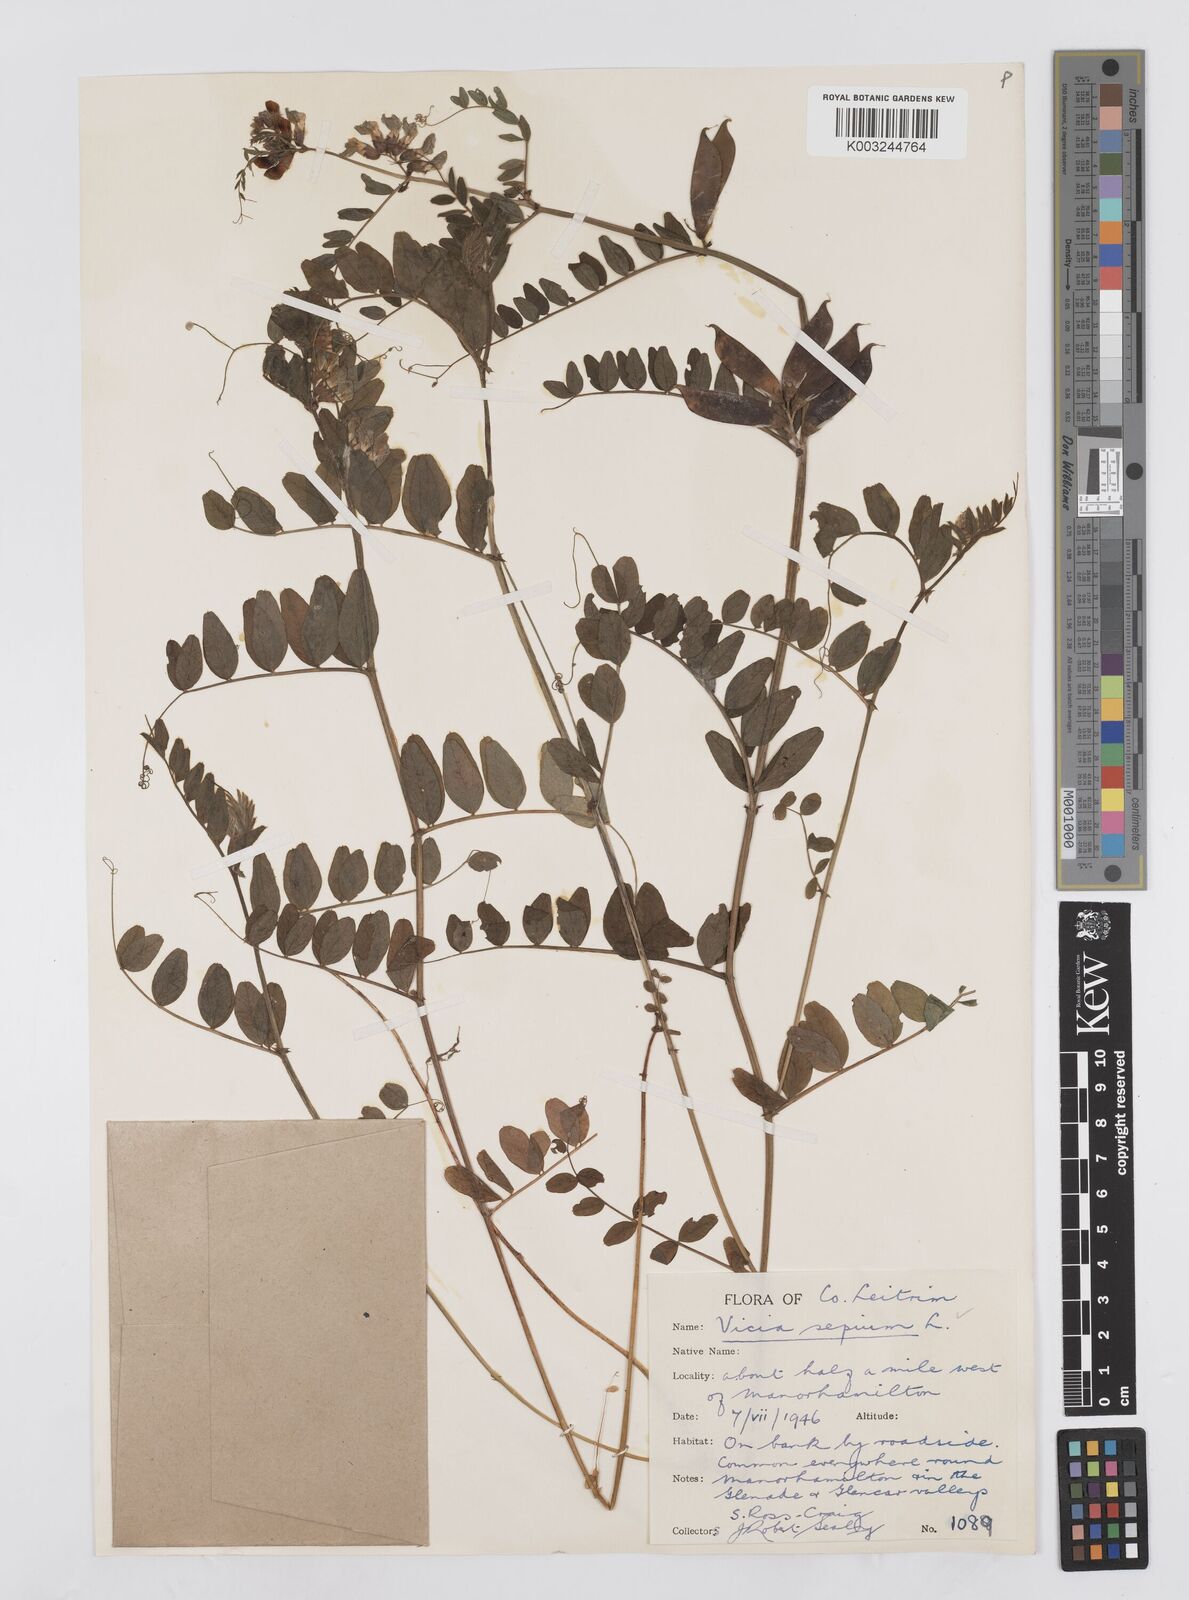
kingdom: Plantae
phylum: Tracheophyta
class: Magnoliopsida
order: Fabales
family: Fabaceae
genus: Vicia
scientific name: Vicia sepium
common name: Bush vetch
